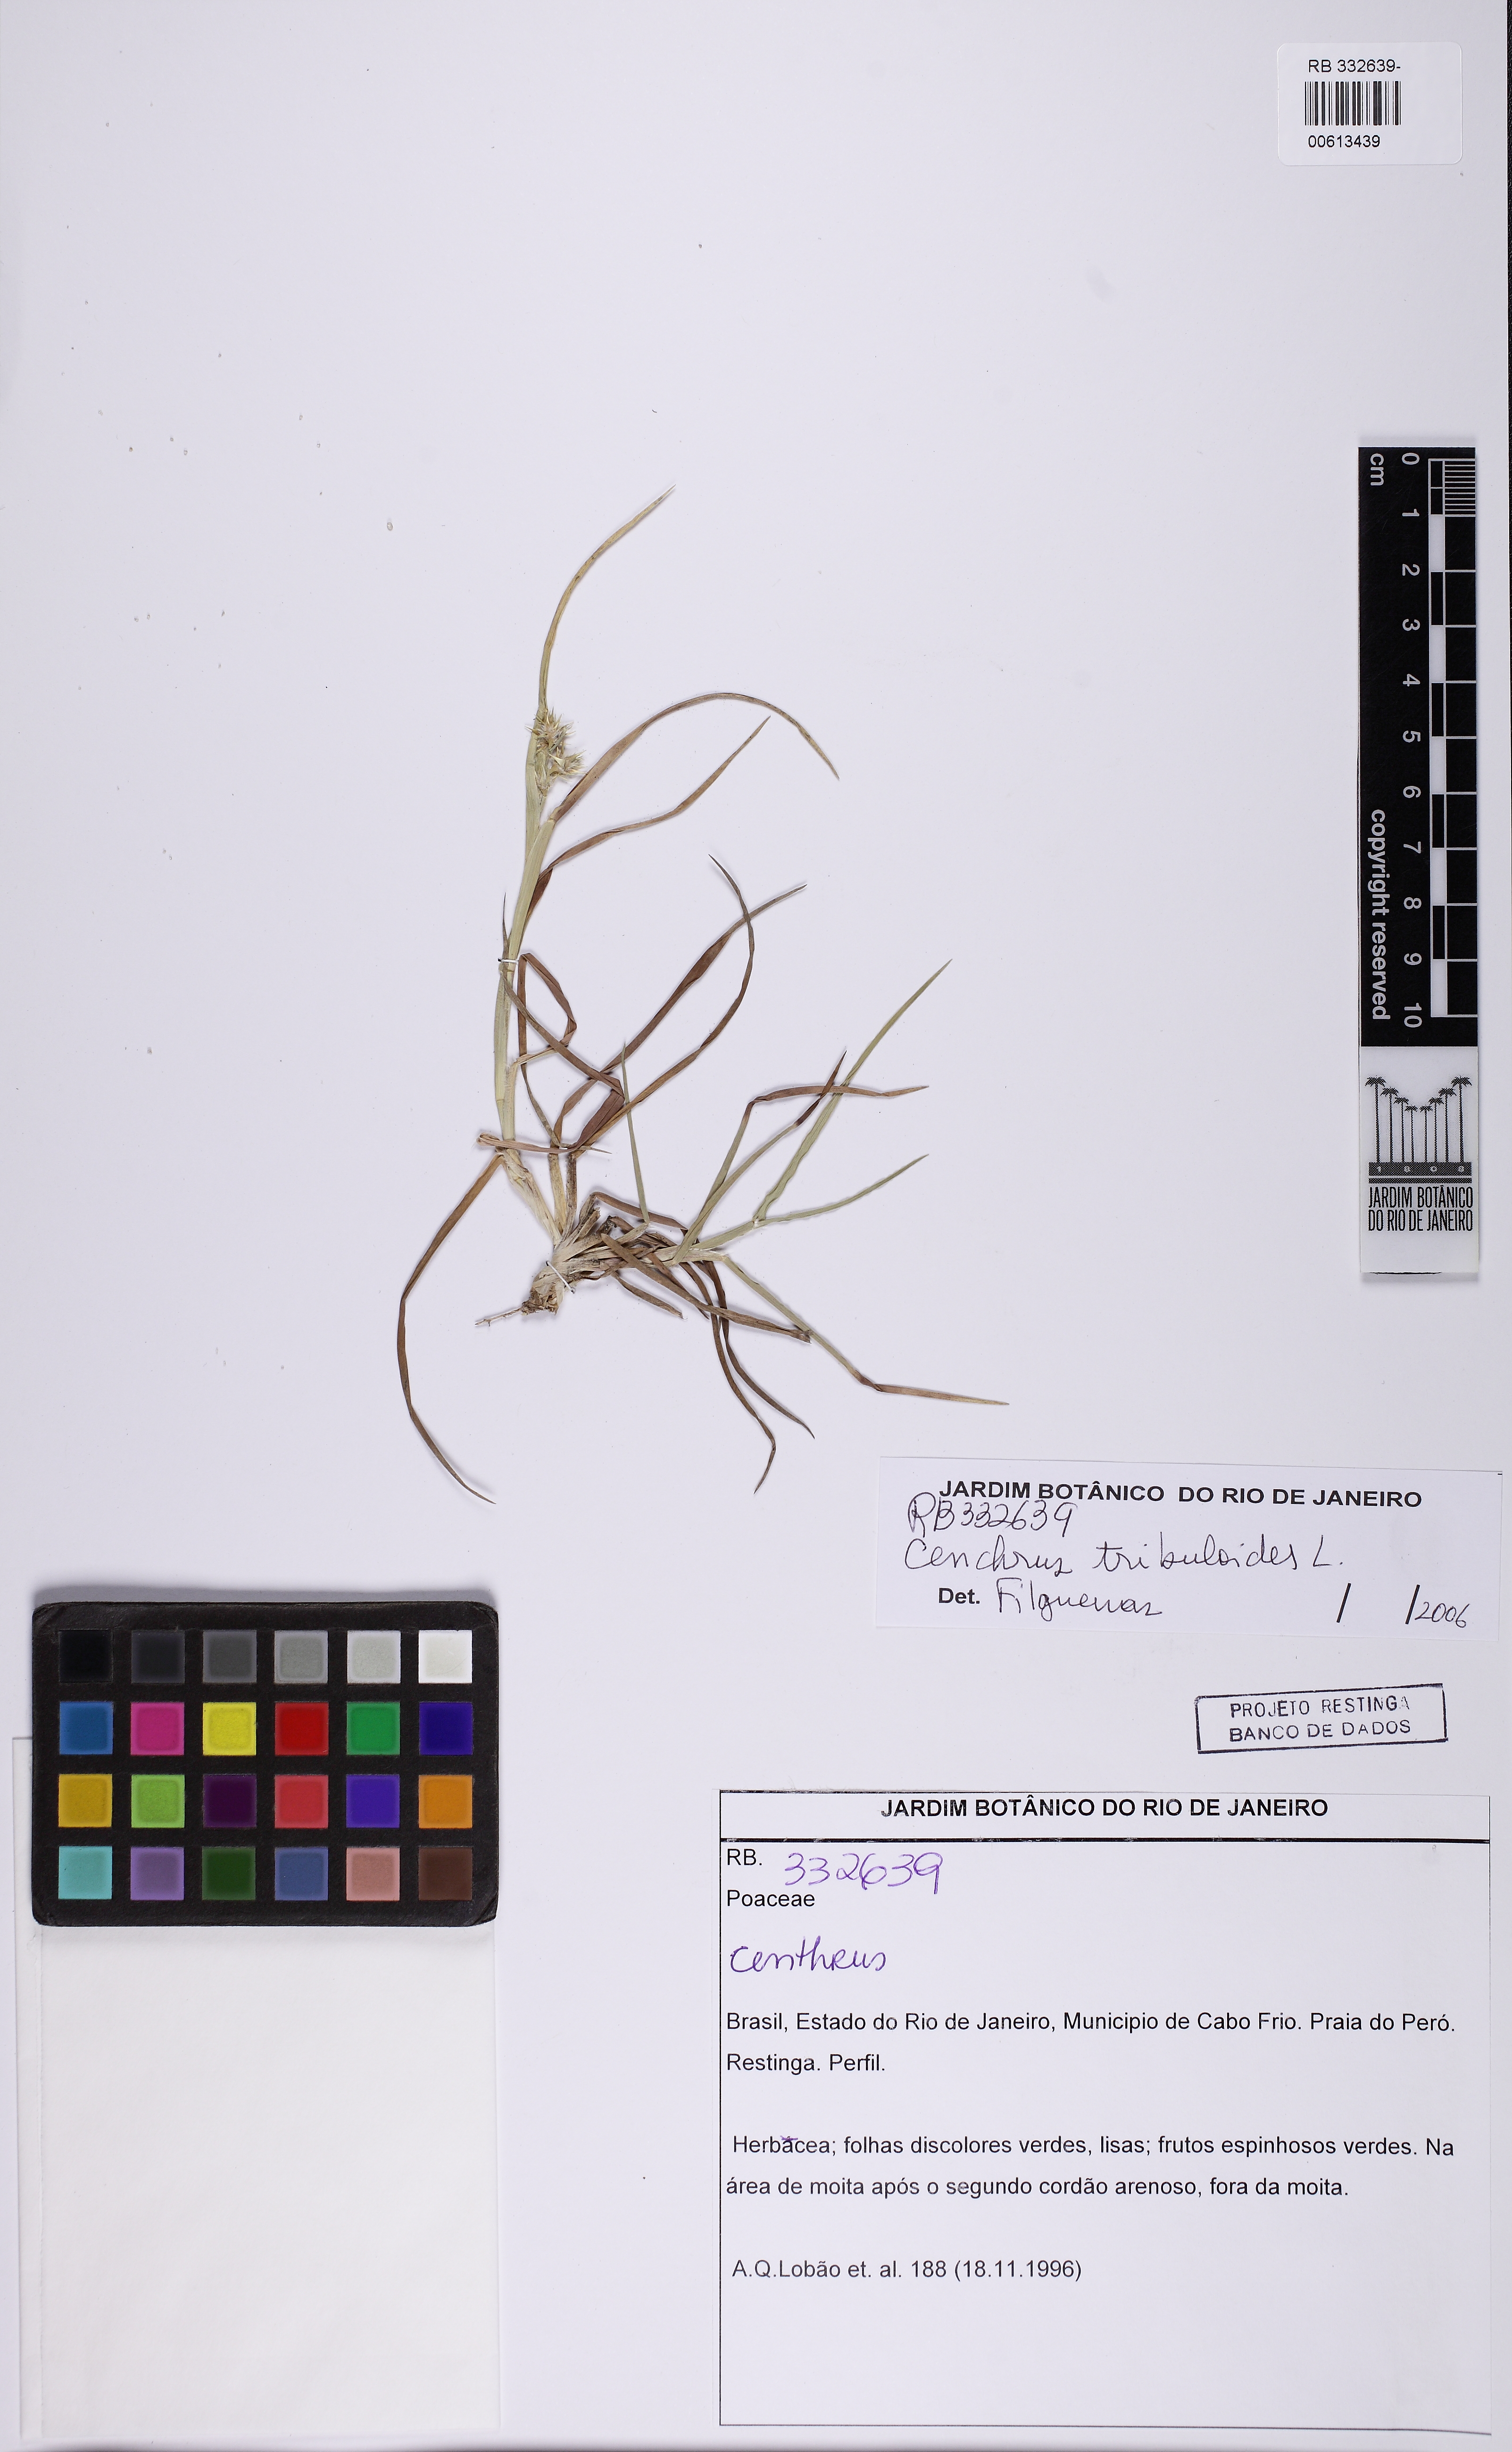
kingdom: Plantae
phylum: Tracheophyta
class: Liliopsida
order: Poales
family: Poaceae
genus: Cenchrus
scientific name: Cenchrus tribuloides
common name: Dune sandbur
